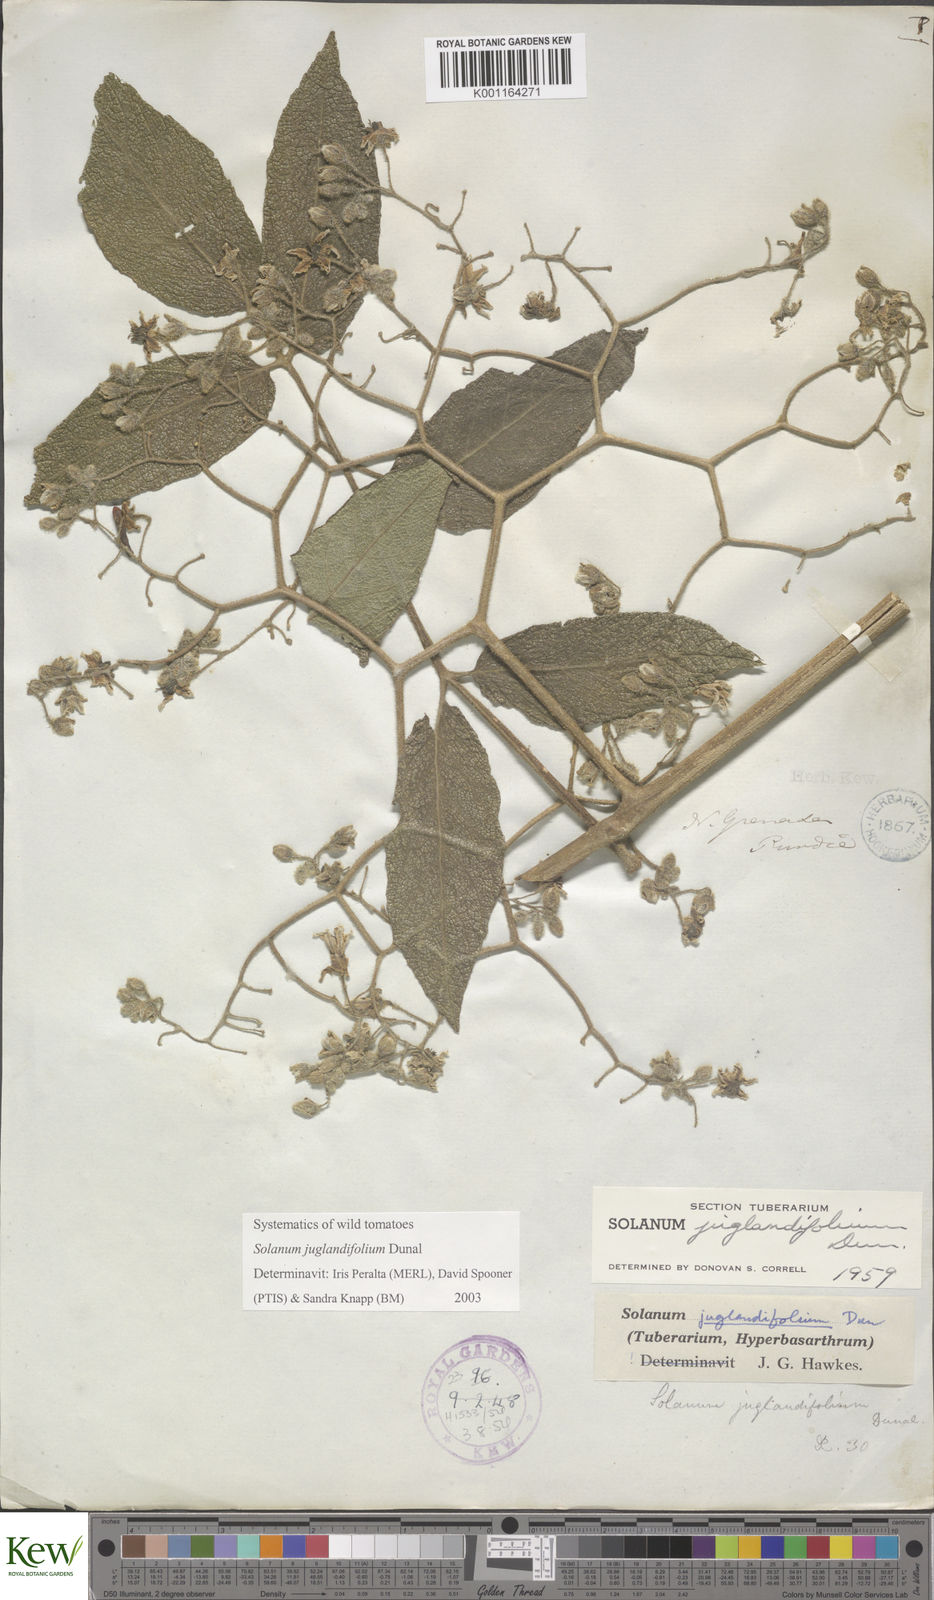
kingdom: Plantae
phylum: Tracheophyta
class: Magnoliopsida
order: Solanales
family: Solanaceae
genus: Solanum
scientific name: Solanum juglandifolium
